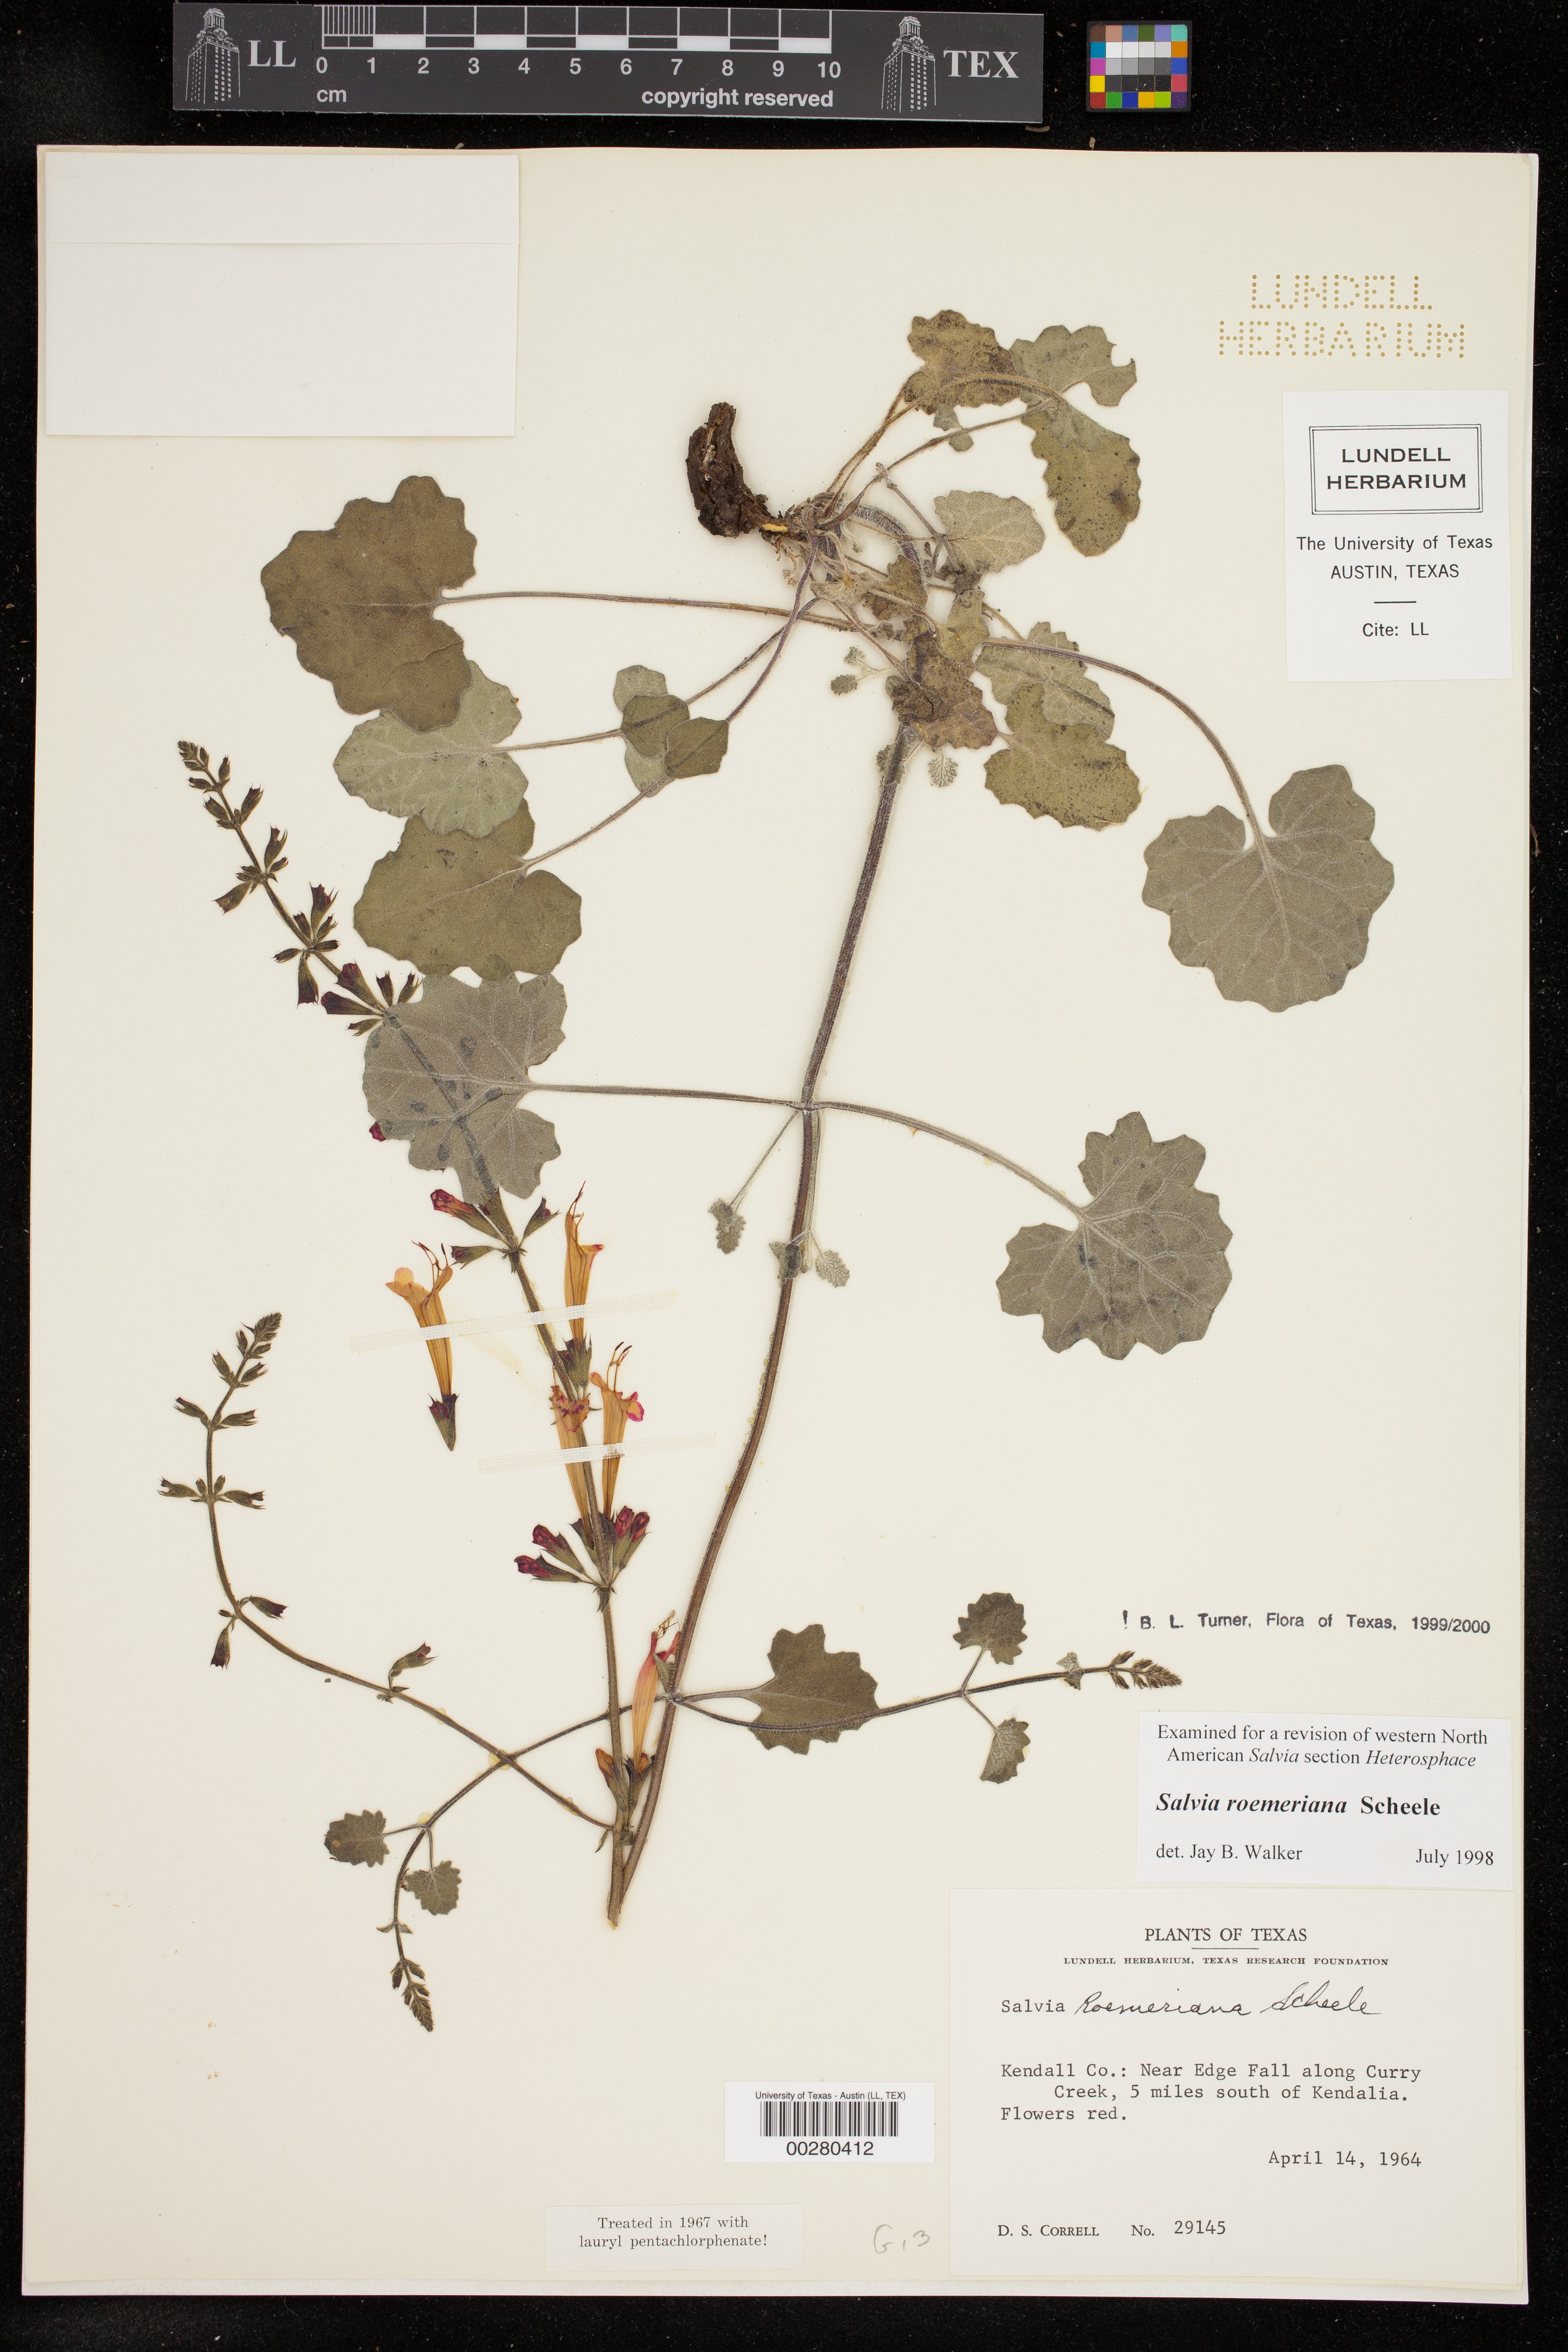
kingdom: Plantae
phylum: Tracheophyta
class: Magnoliopsida
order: Lamiales
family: Lamiaceae
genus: Salvia
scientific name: Salvia roemeriana
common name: Cedar sage
